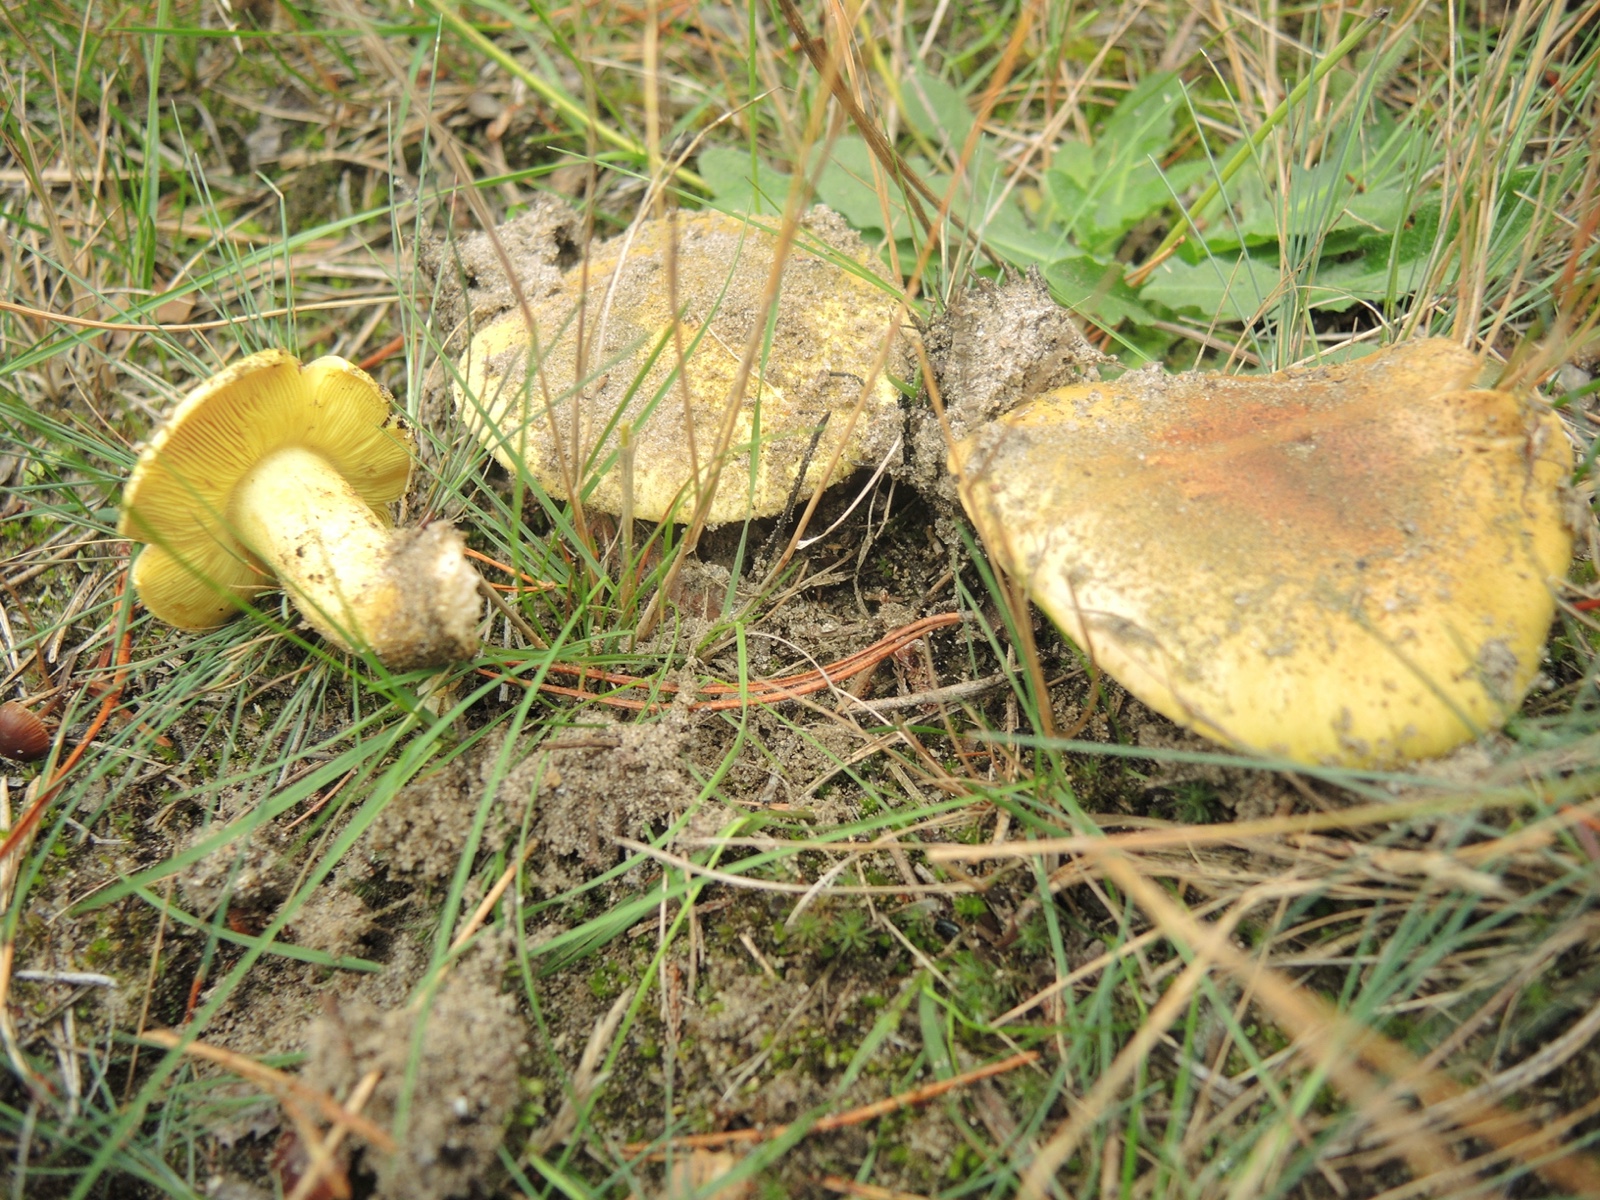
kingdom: Fungi
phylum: Basidiomycota
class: Agaricomycetes
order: Agaricales
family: Tricholomataceae
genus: Tricholoma
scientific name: Tricholoma equestre
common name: ægte ridderhat
